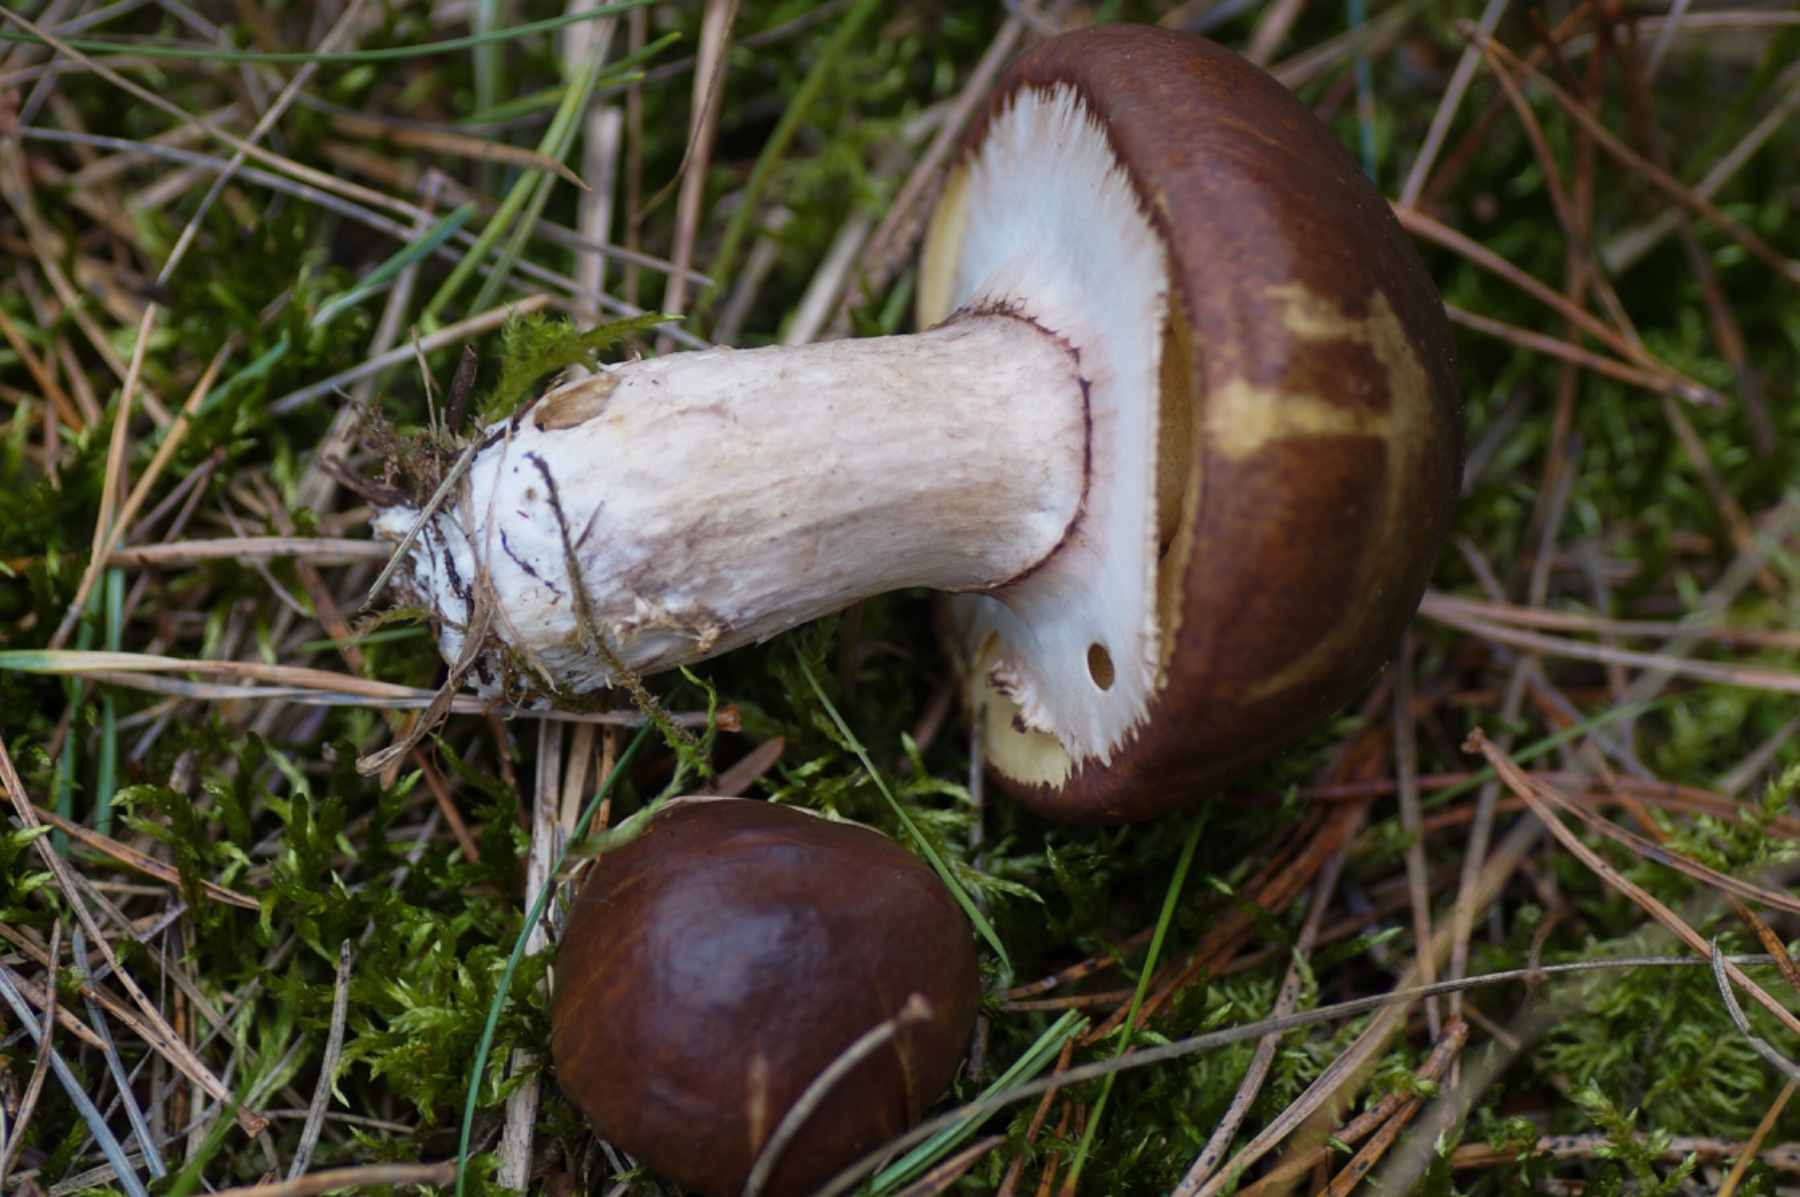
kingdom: Fungi
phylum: Basidiomycota
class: Agaricomycetes
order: Boletales
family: Suillaceae
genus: Suillus
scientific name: Suillus luteus
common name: brungul slimrørhat
